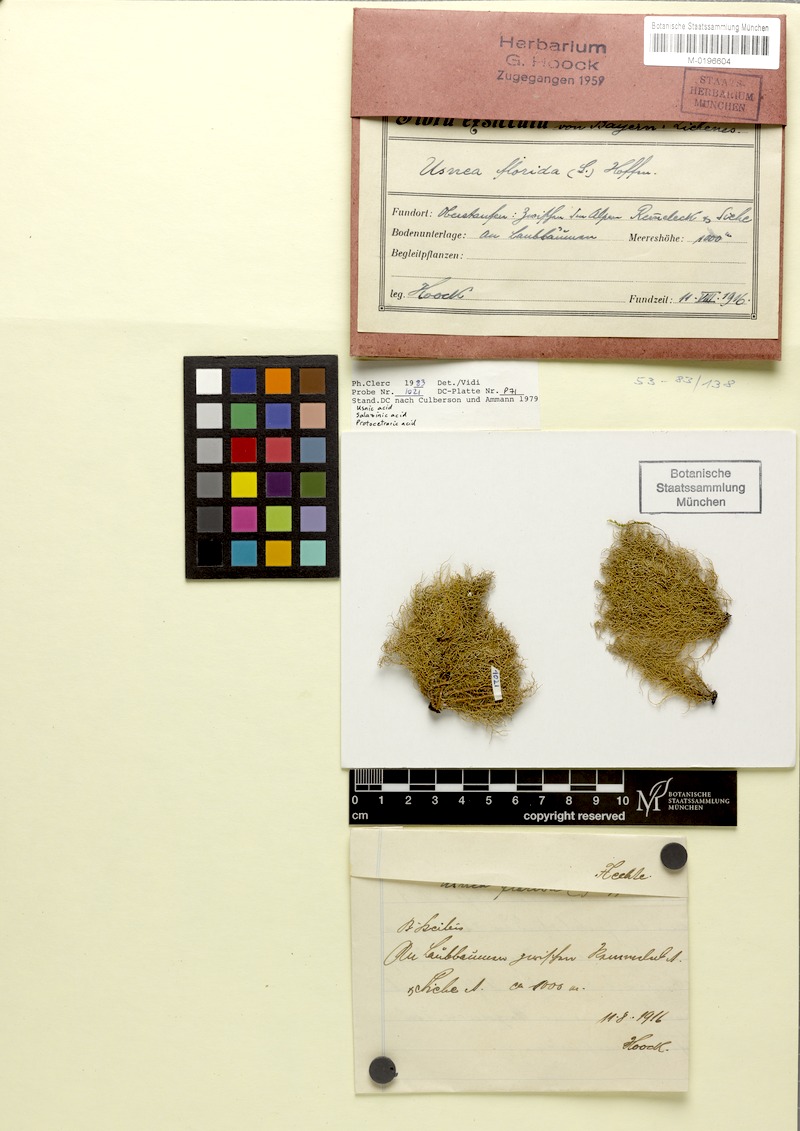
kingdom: Fungi
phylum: Ascomycota
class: Lecanoromycetes
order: Lecanorales
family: Parmeliaceae
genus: Usnea
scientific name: Usnea florida
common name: Witches' whiskers lichen
